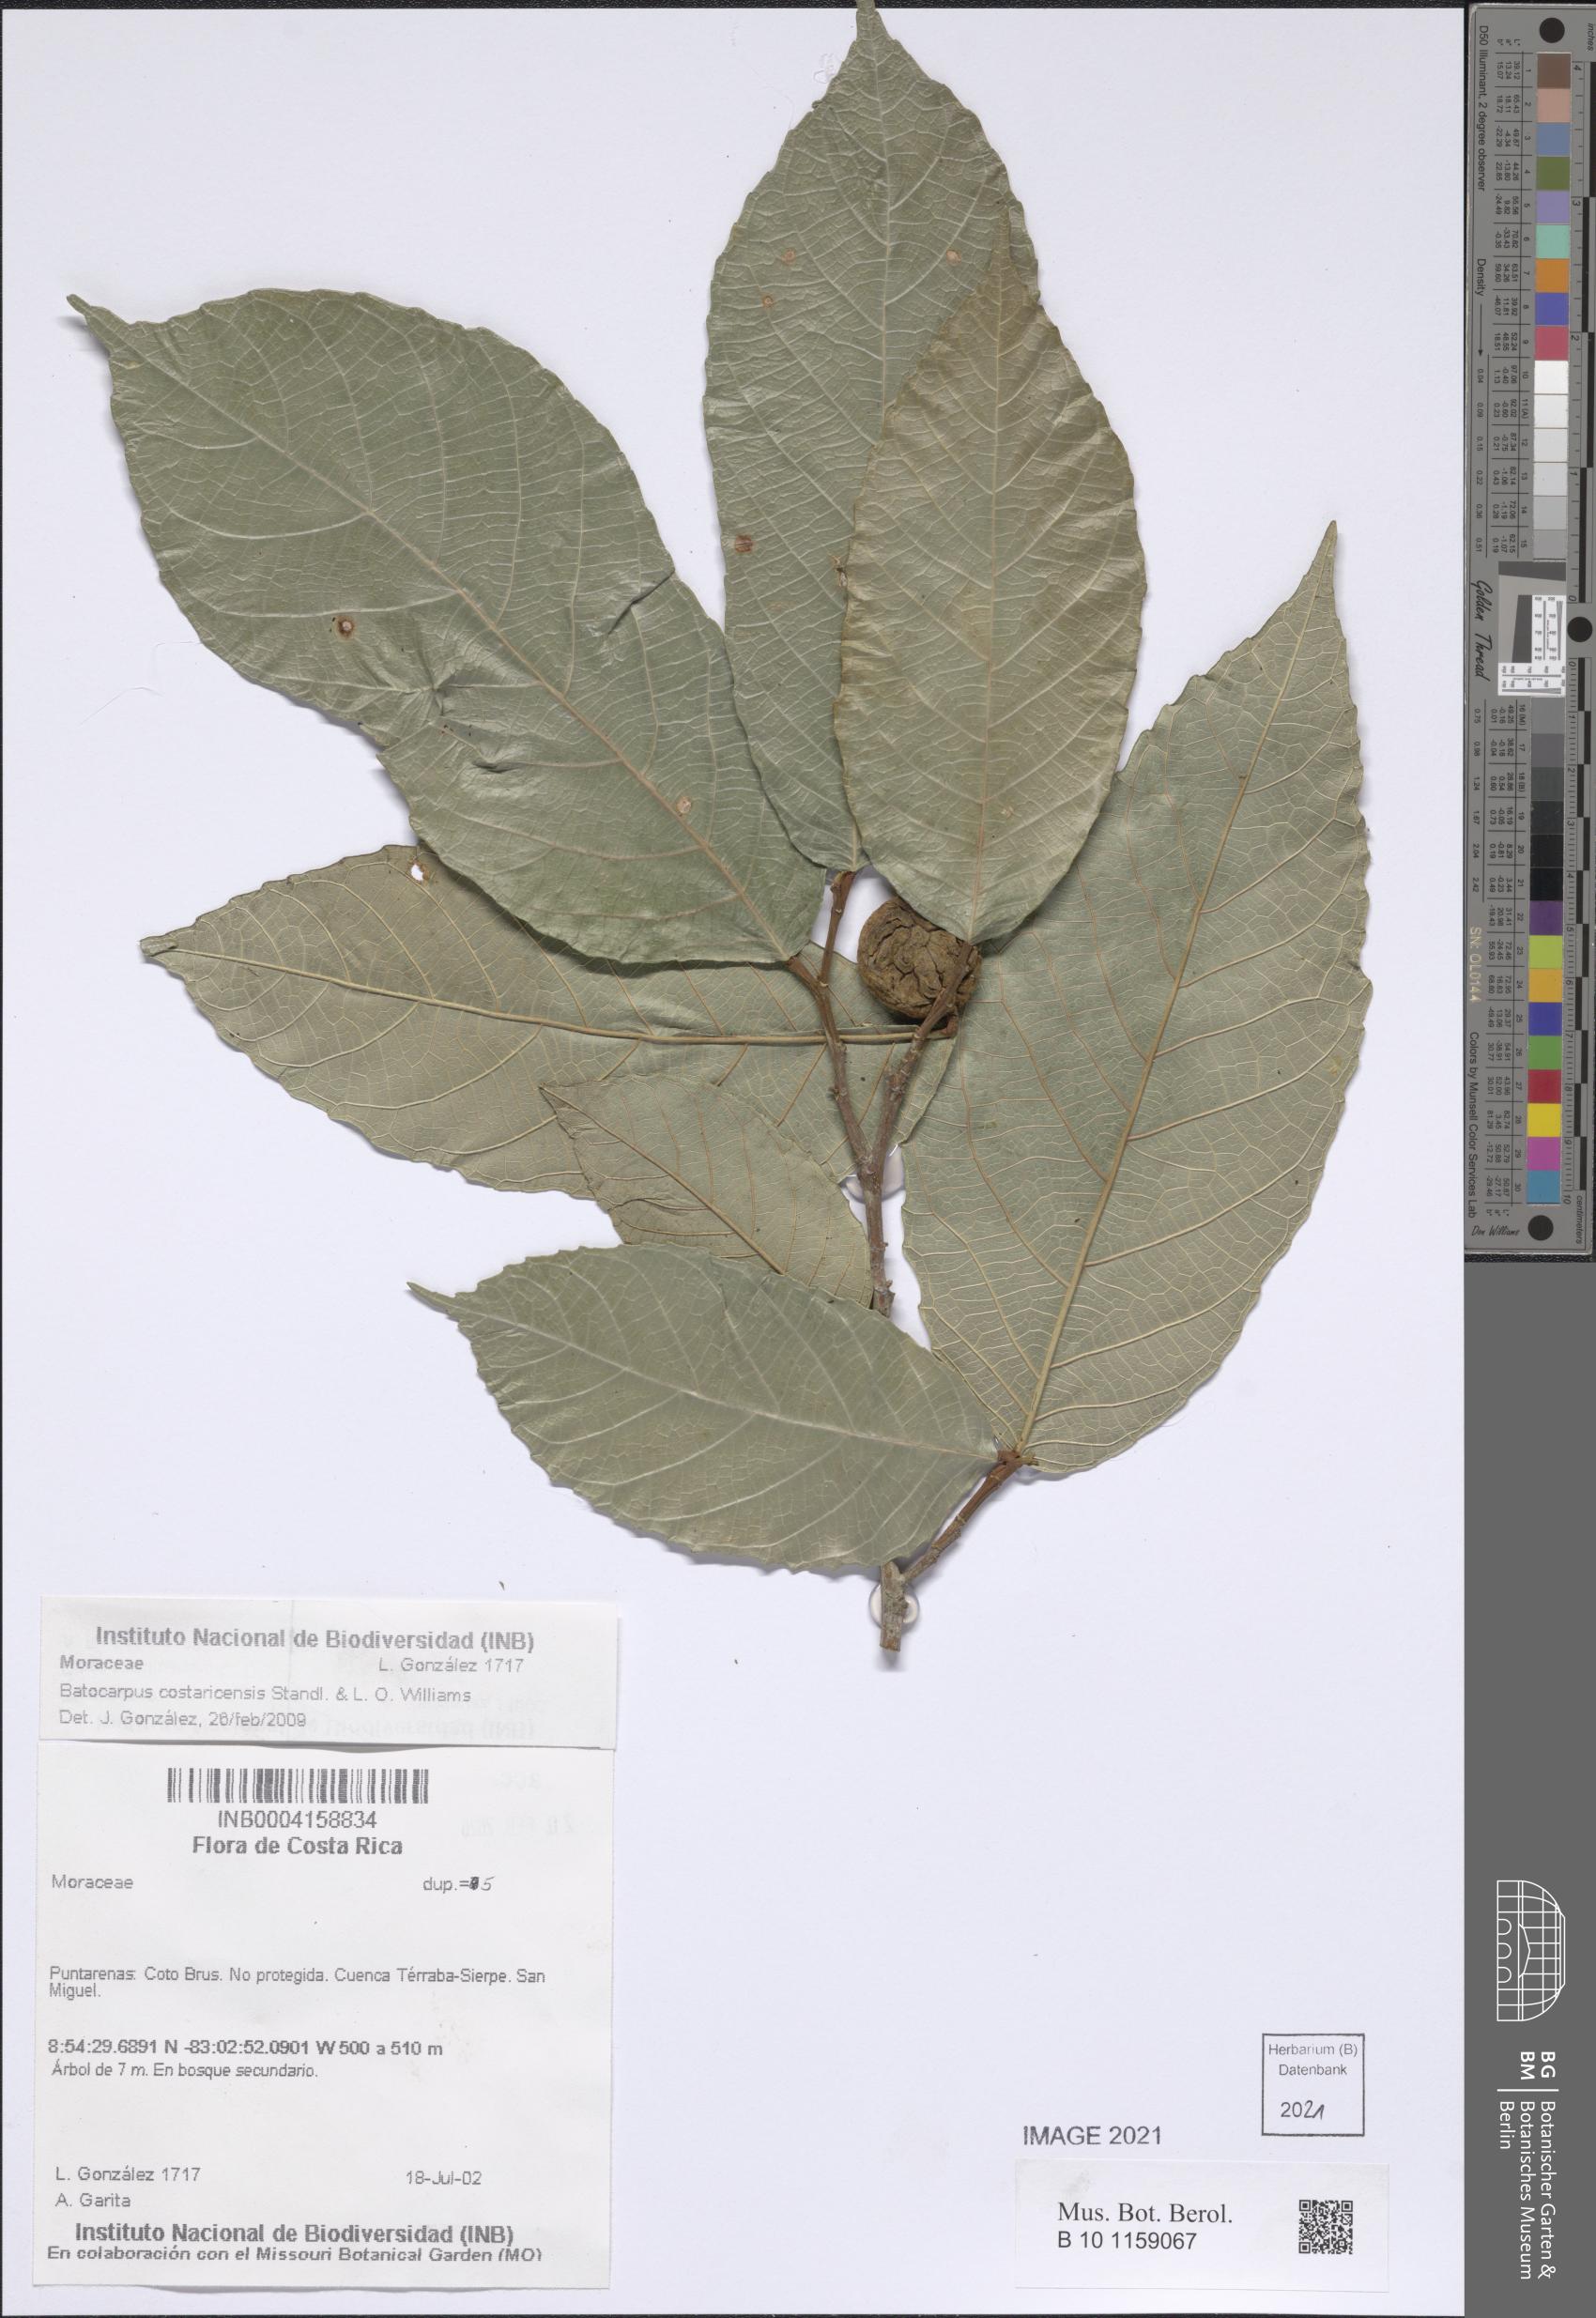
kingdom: Plantae
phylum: Tracheophyta
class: Magnoliopsida
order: Rosales
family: Moraceae
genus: Batocarpus
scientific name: Batocarpus costaricensis
